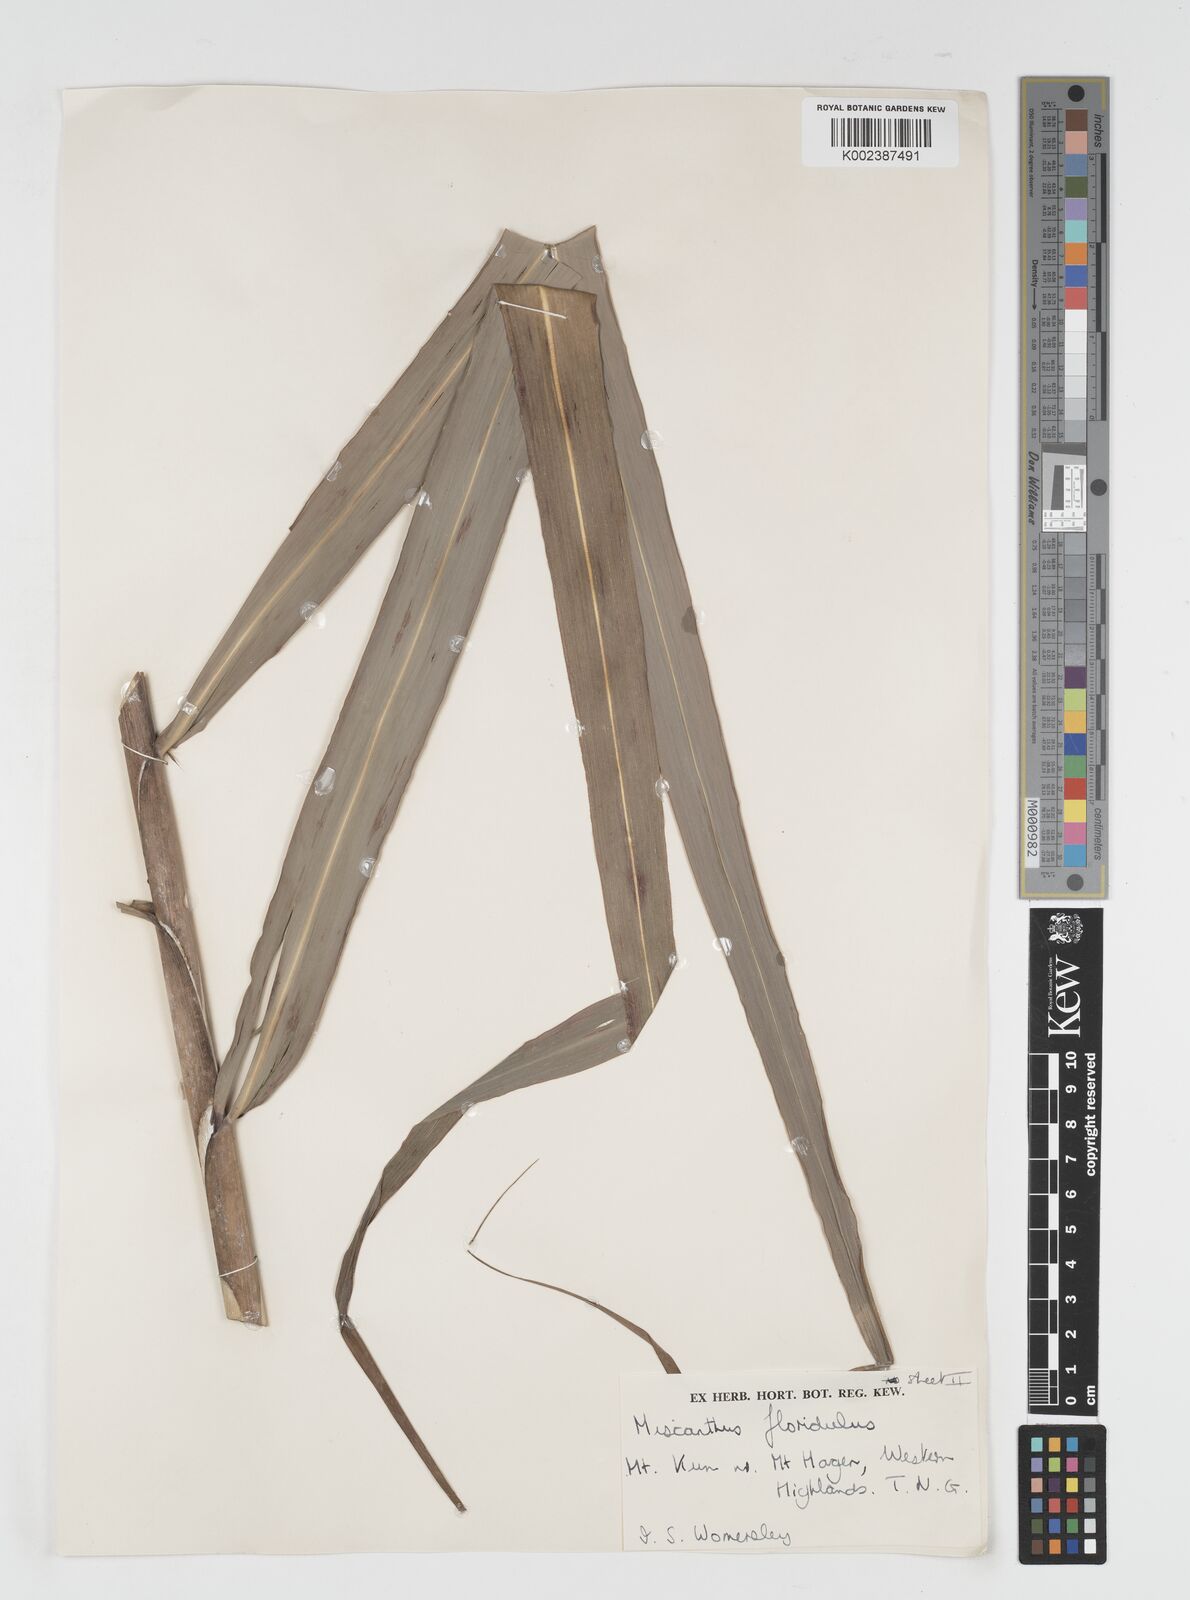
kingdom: Plantae
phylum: Tracheophyta
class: Liliopsida
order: Poales
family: Poaceae
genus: Miscanthus
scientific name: Miscanthus floridulus
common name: Pacific island silvergrass
